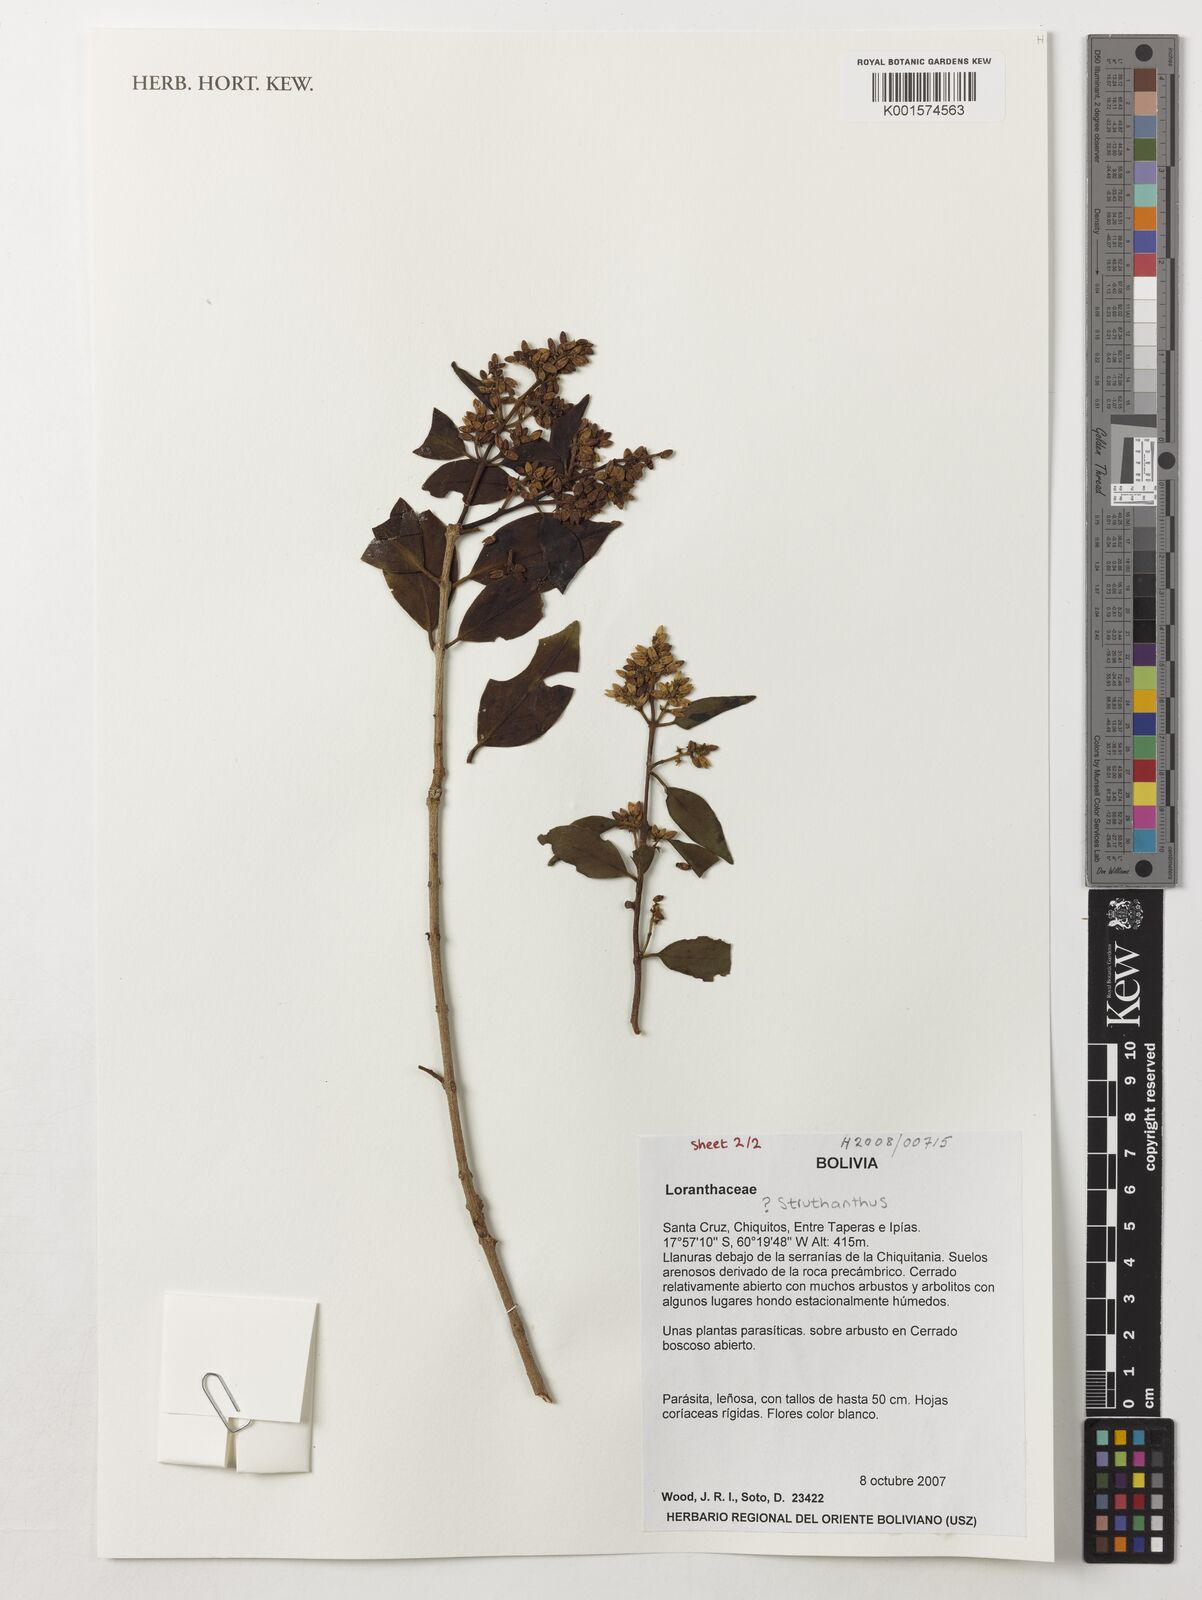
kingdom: Plantae
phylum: Tracheophyta
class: Magnoliopsida
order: Santalales
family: Loranthaceae
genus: Struthanthus
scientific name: Struthanthus
